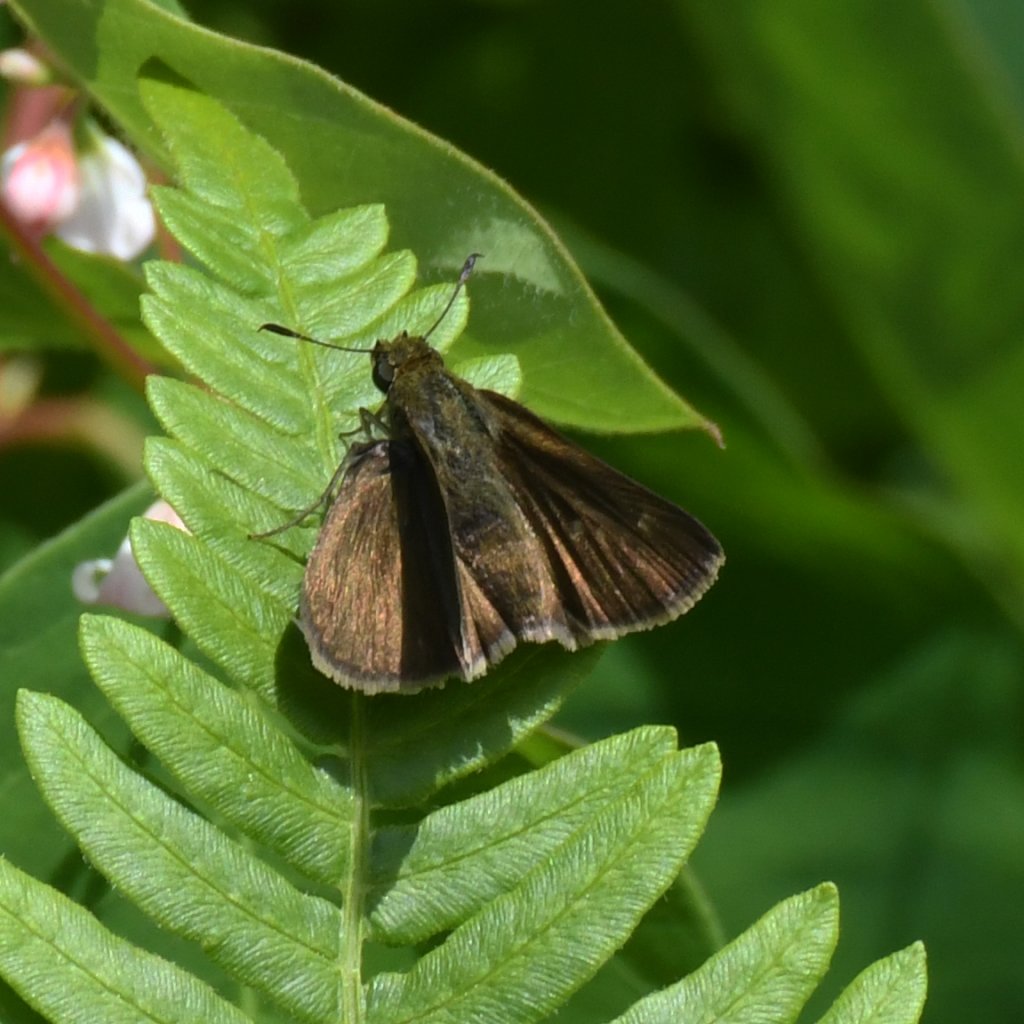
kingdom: Animalia
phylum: Arthropoda
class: Insecta
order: Lepidoptera
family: Hesperiidae
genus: Euphyes
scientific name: Euphyes vestris
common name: Dun Skipper
